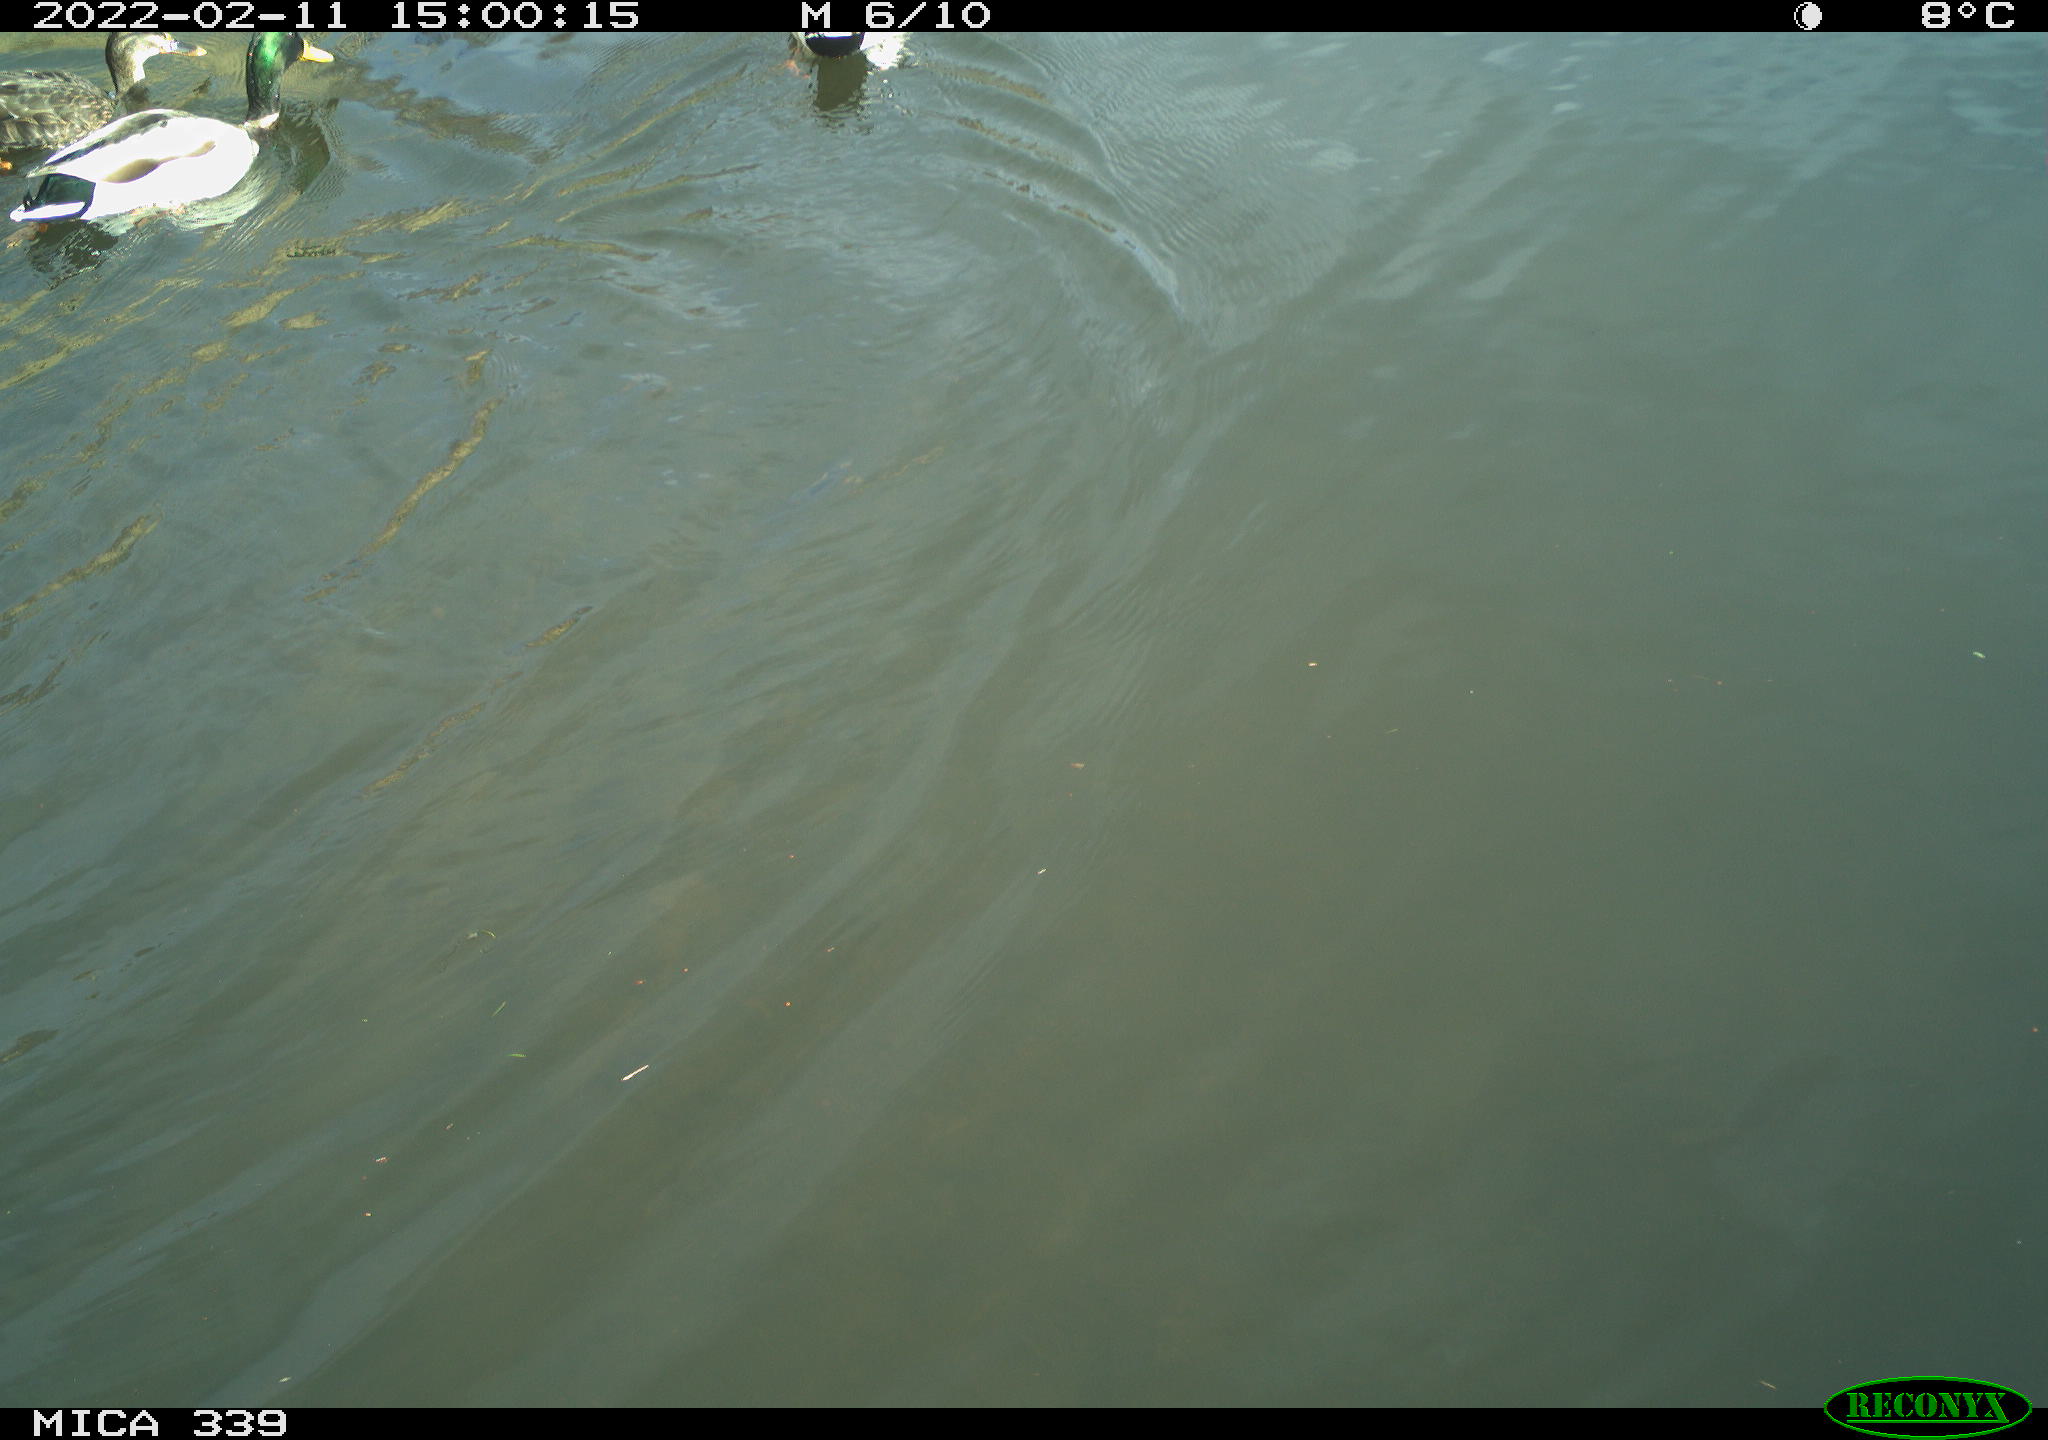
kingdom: Animalia
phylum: Chordata
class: Aves
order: Anseriformes
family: Anatidae
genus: Anas
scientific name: Anas platyrhynchos
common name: Mallard
